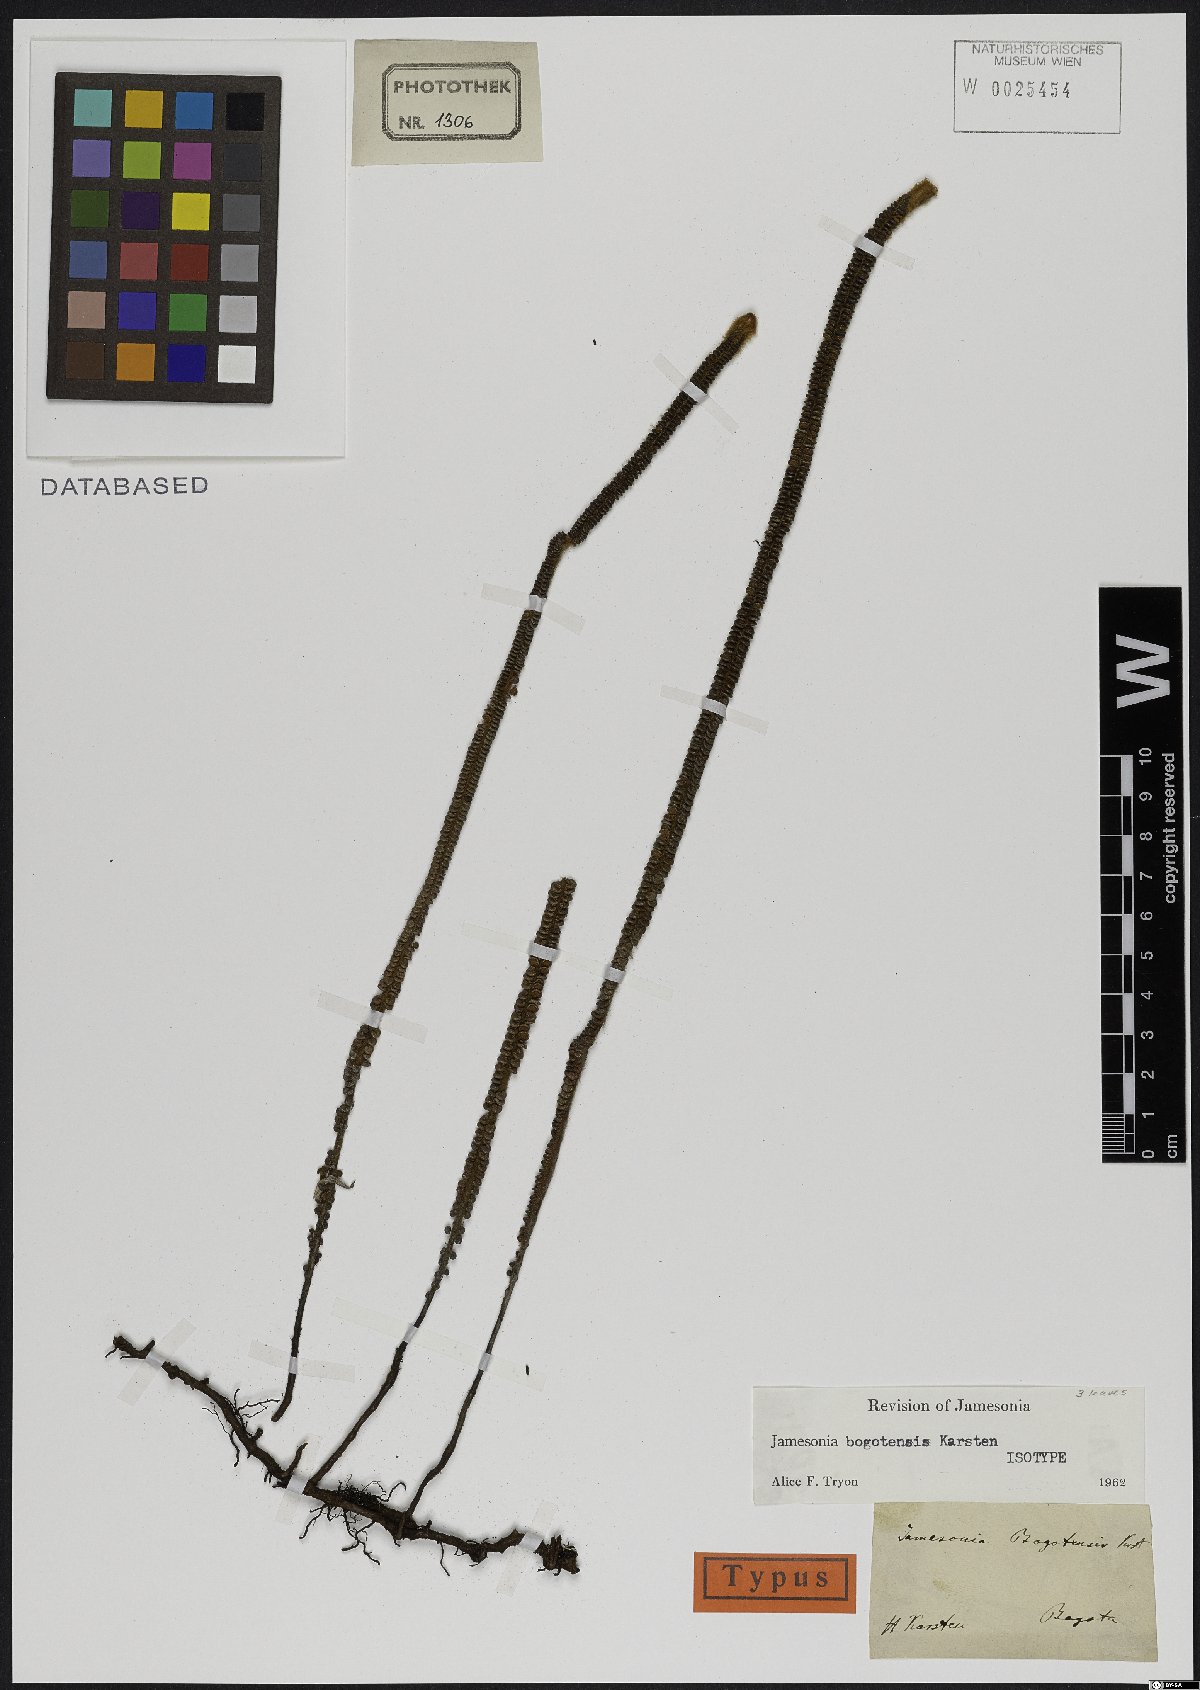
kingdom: Plantae
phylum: Tracheophyta
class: Polypodiopsida
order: Polypodiales
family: Pteridaceae
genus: Jamesonia
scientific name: Jamesonia bogotensis
